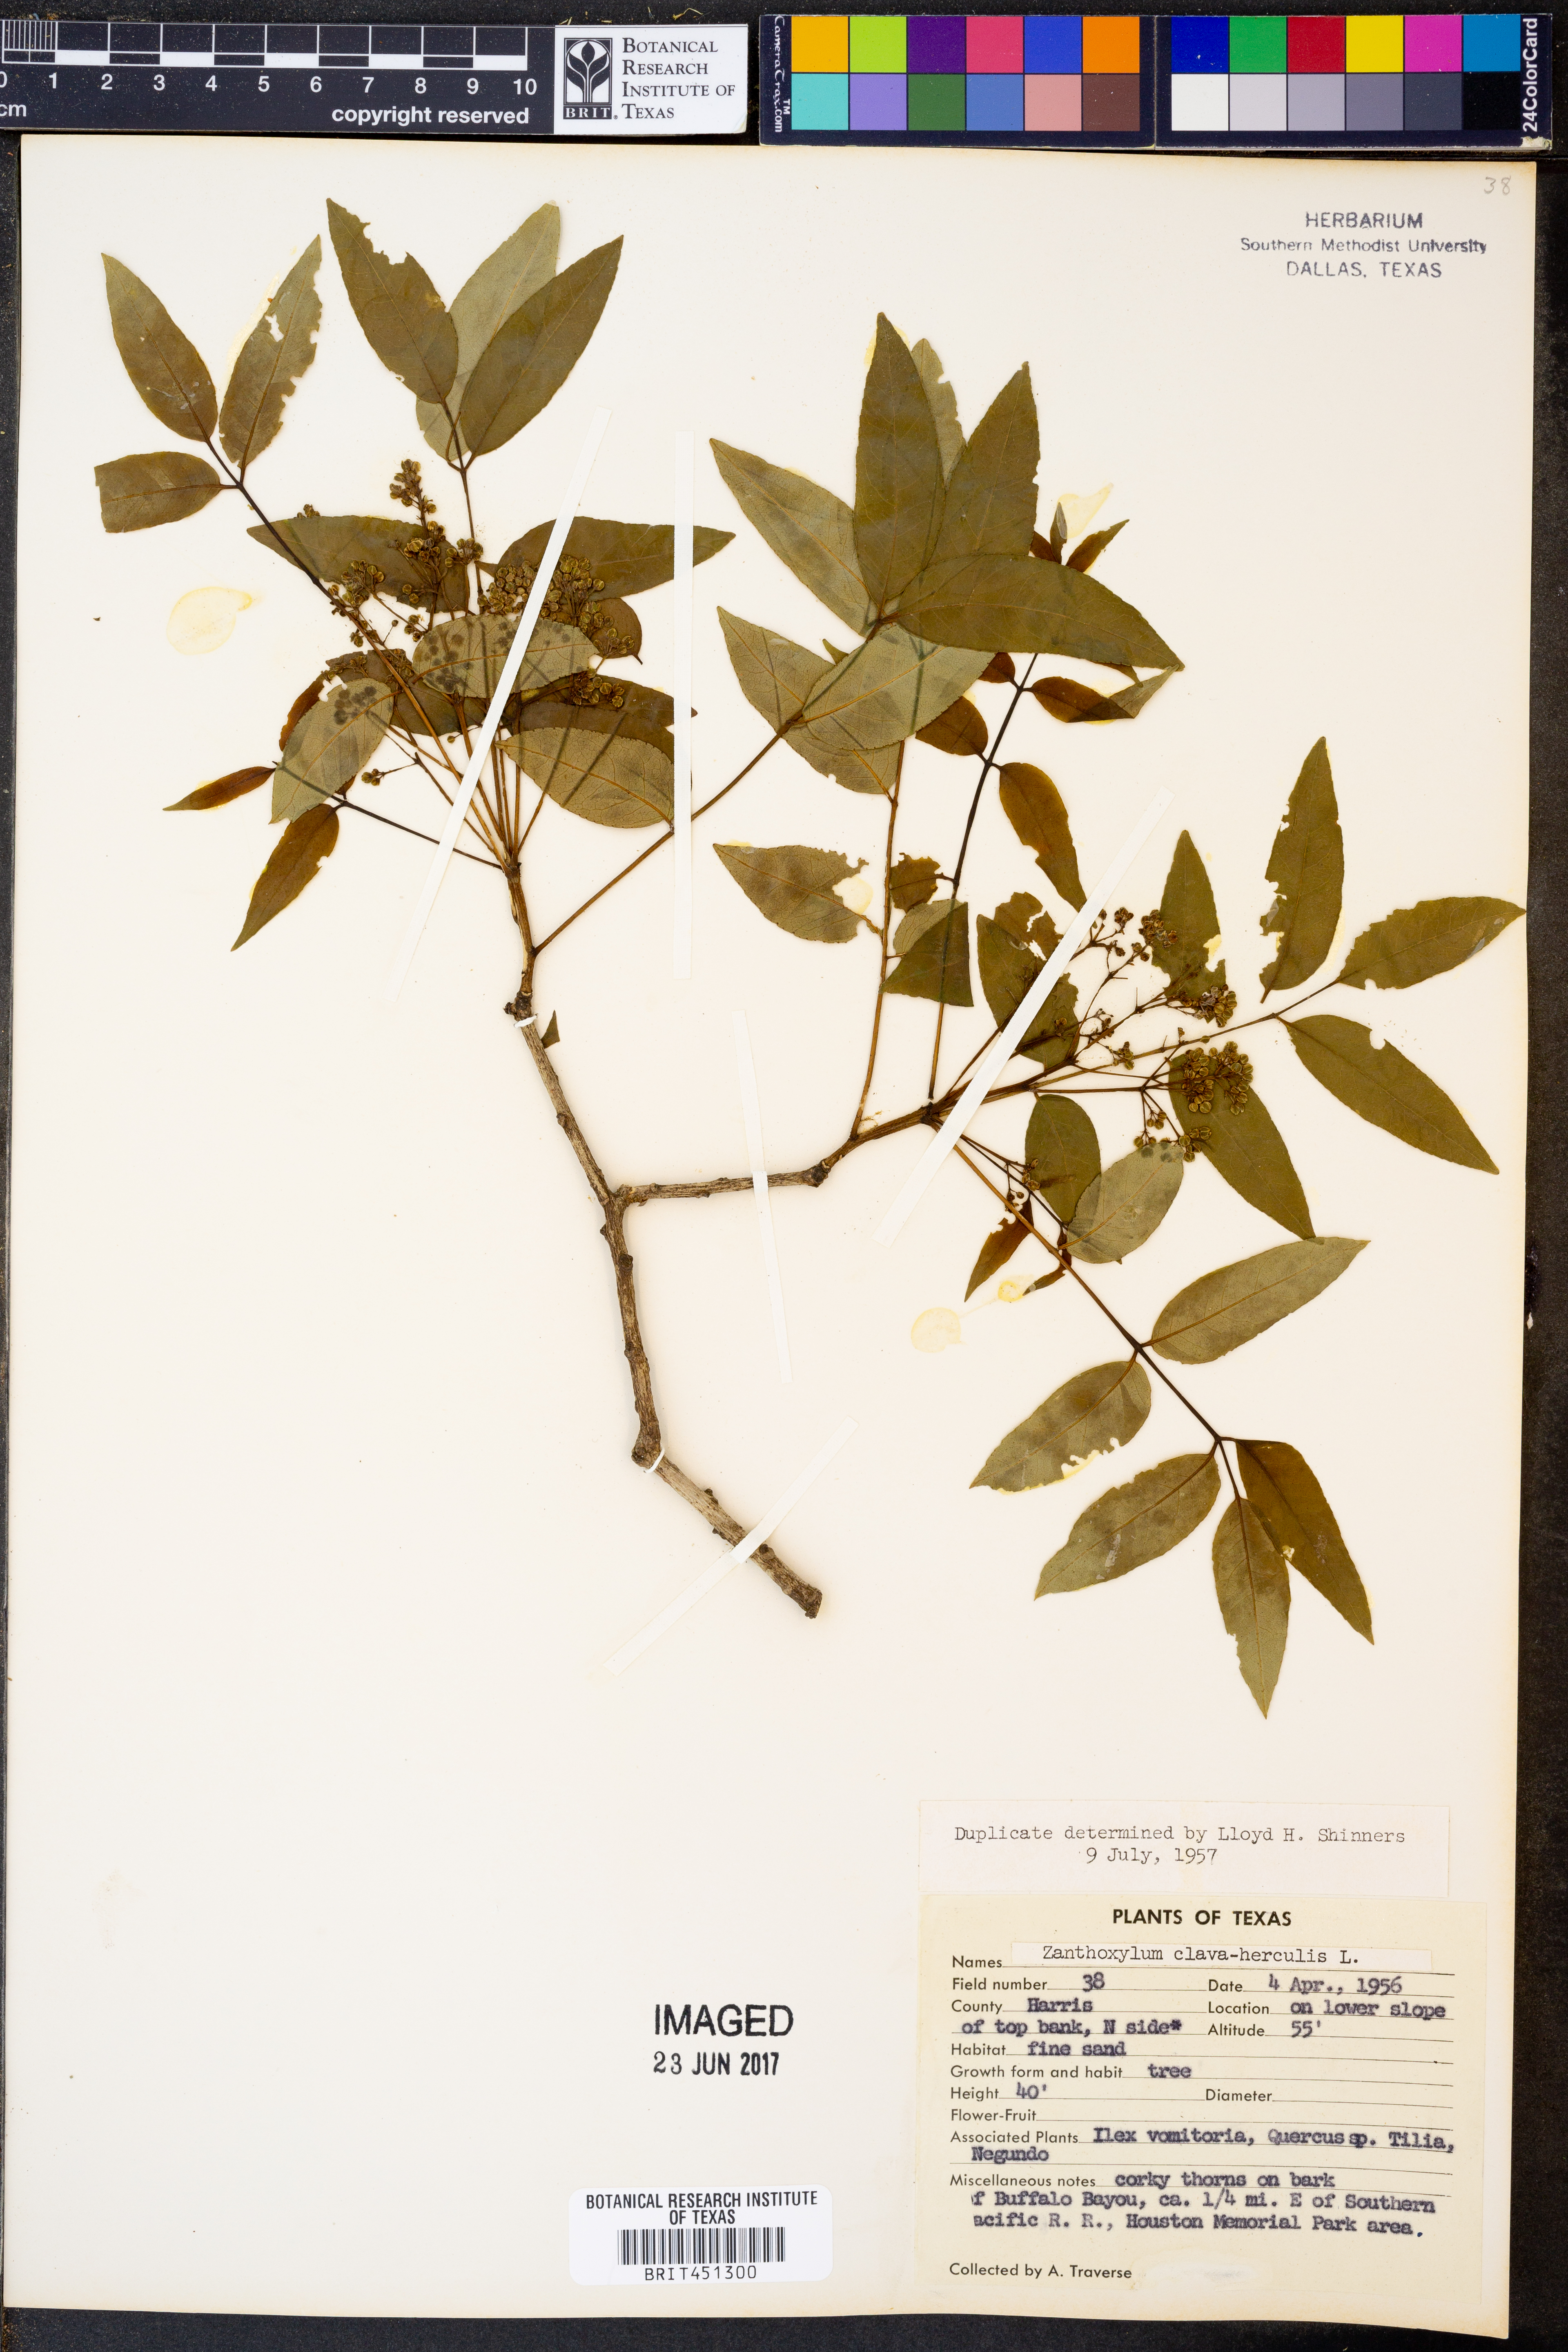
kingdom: Plantae
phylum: Tracheophyta
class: Magnoliopsida
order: Sapindales
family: Rutaceae
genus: Zanthoxylum
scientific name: Zanthoxylum avicennae
